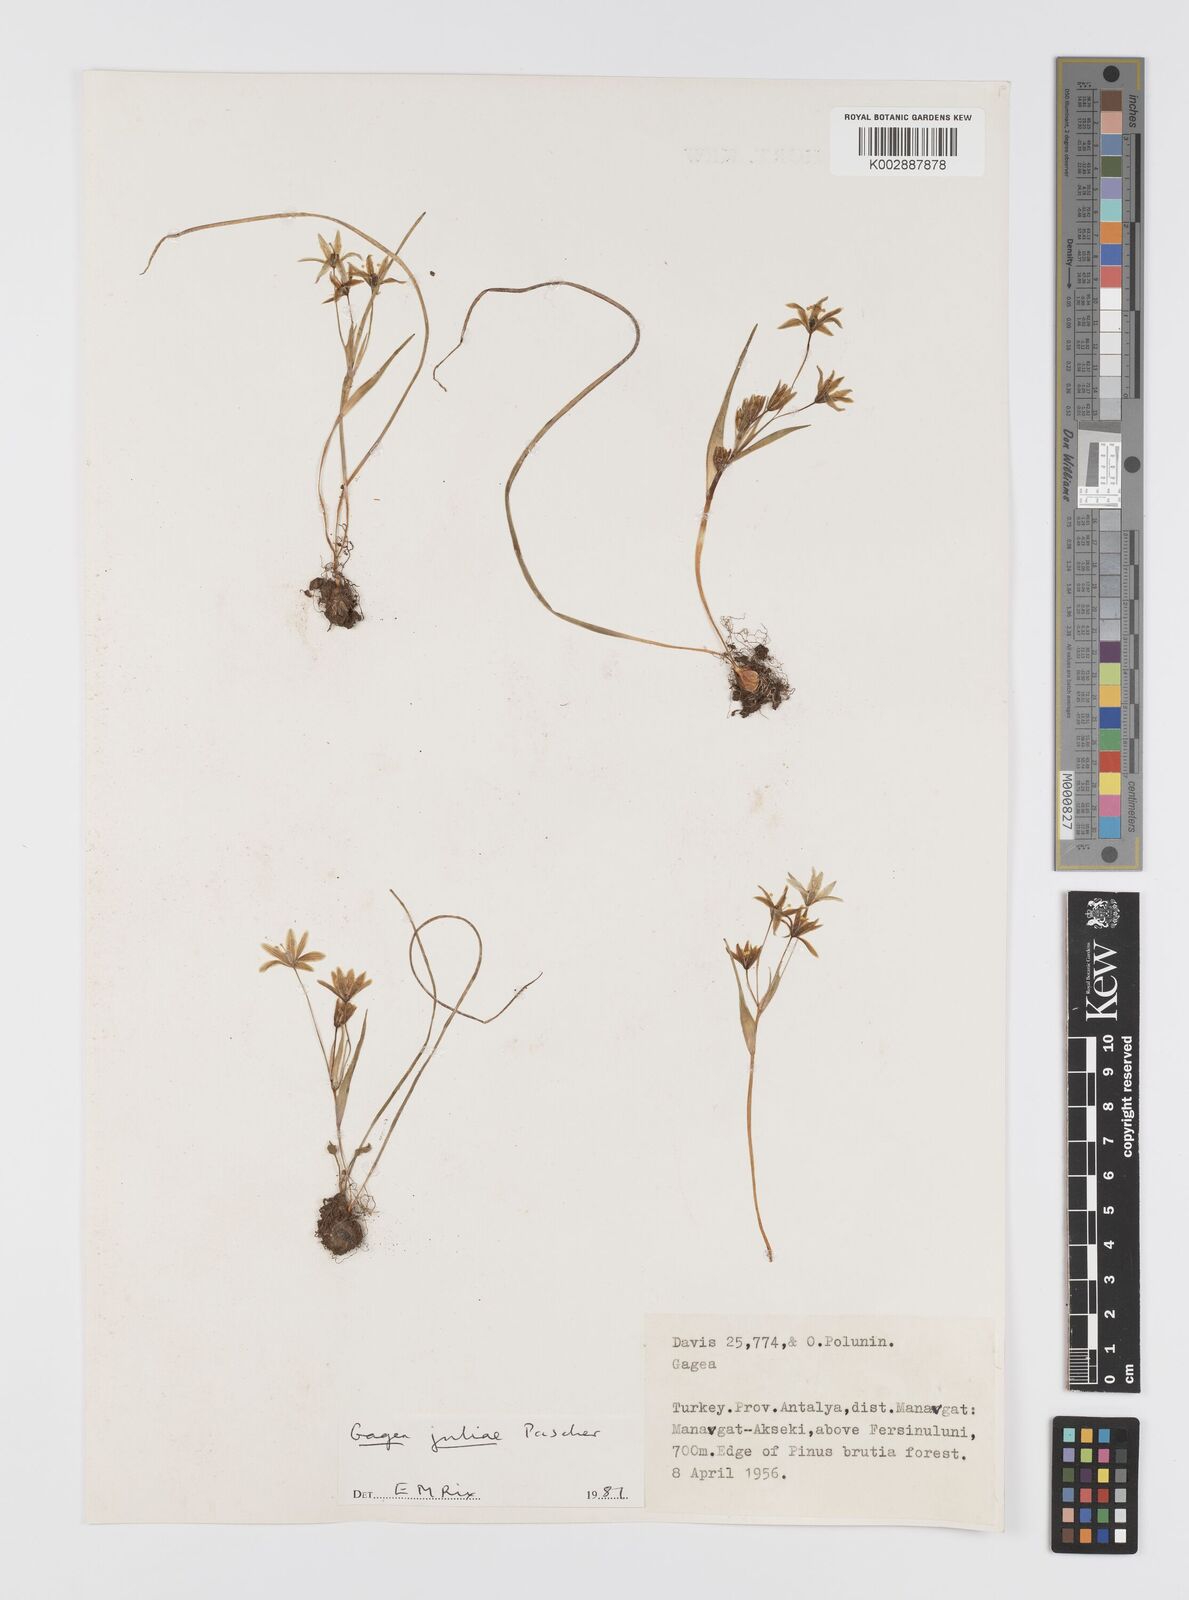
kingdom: Plantae
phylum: Tracheophyta
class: Liliopsida
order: Liliales
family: Liliaceae
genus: Gagea
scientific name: Gagea juliae
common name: Julia’s gagea
